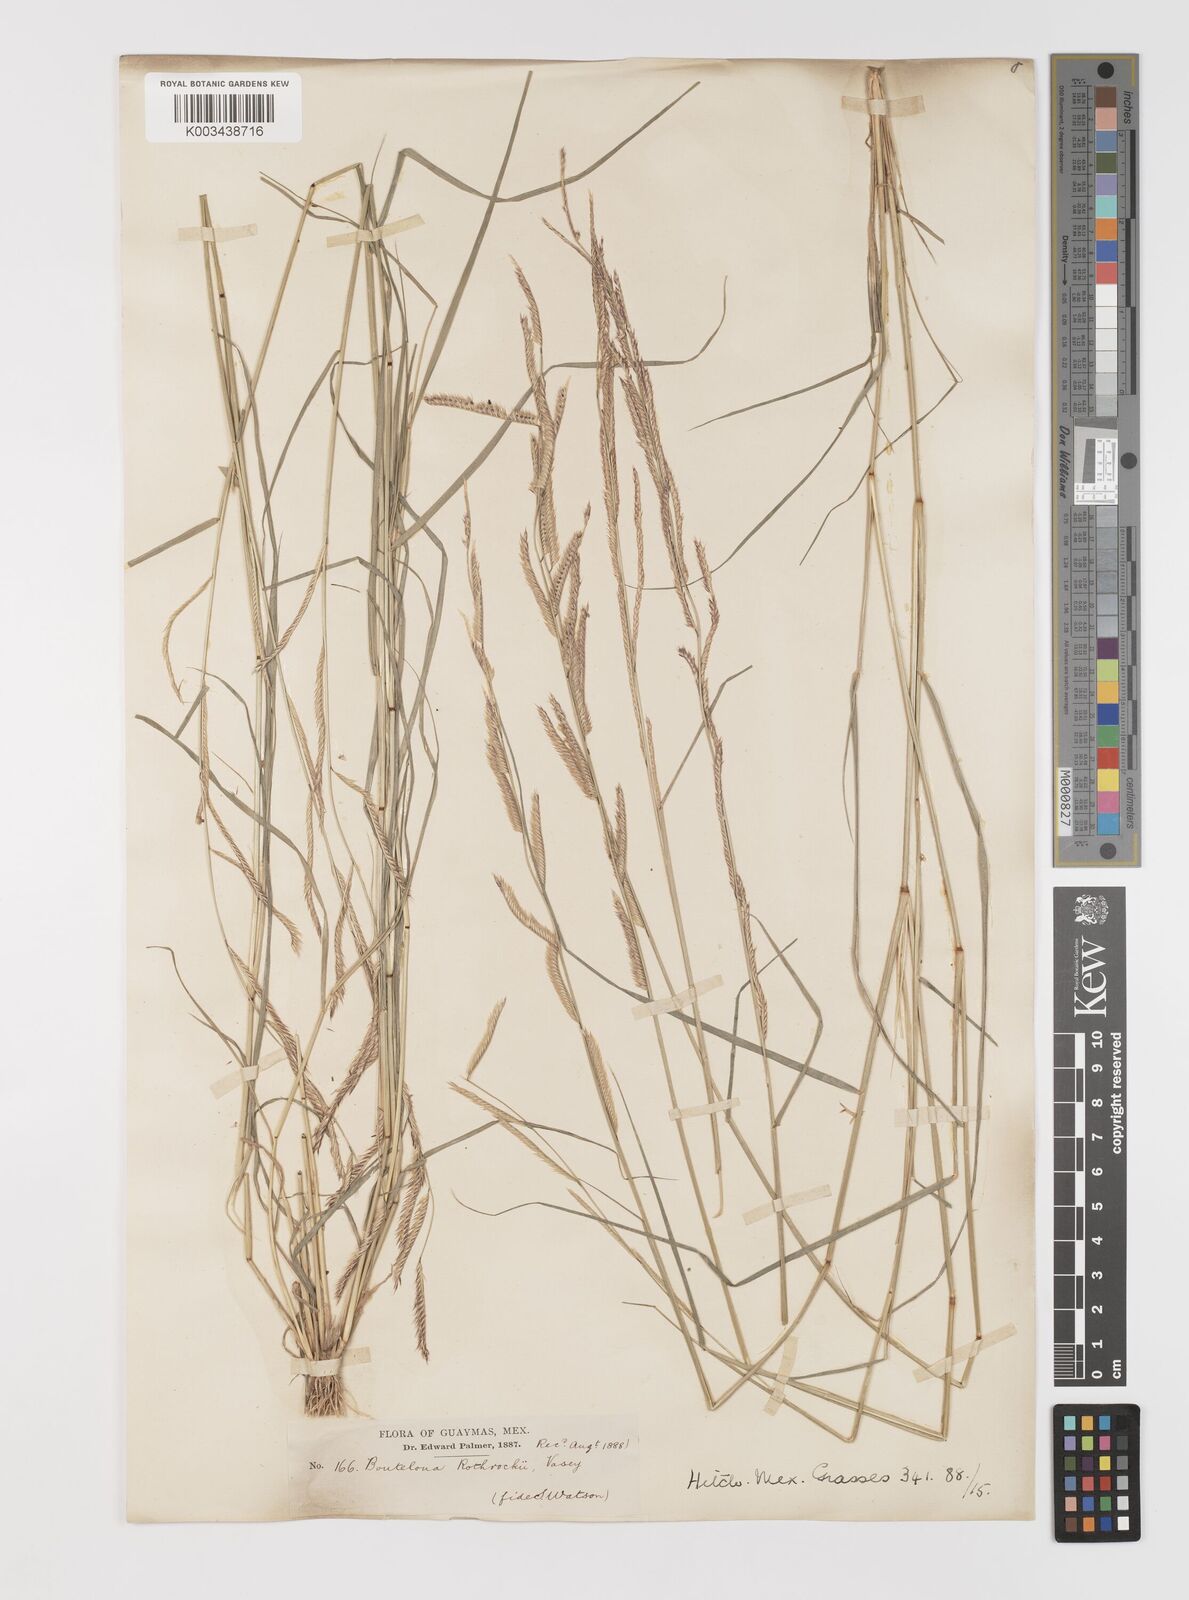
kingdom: Plantae
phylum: Tracheophyta
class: Liliopsida
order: Poales
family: Poaceae
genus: Bouteloua
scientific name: Bouteloua barbata
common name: Six-weeks grama
